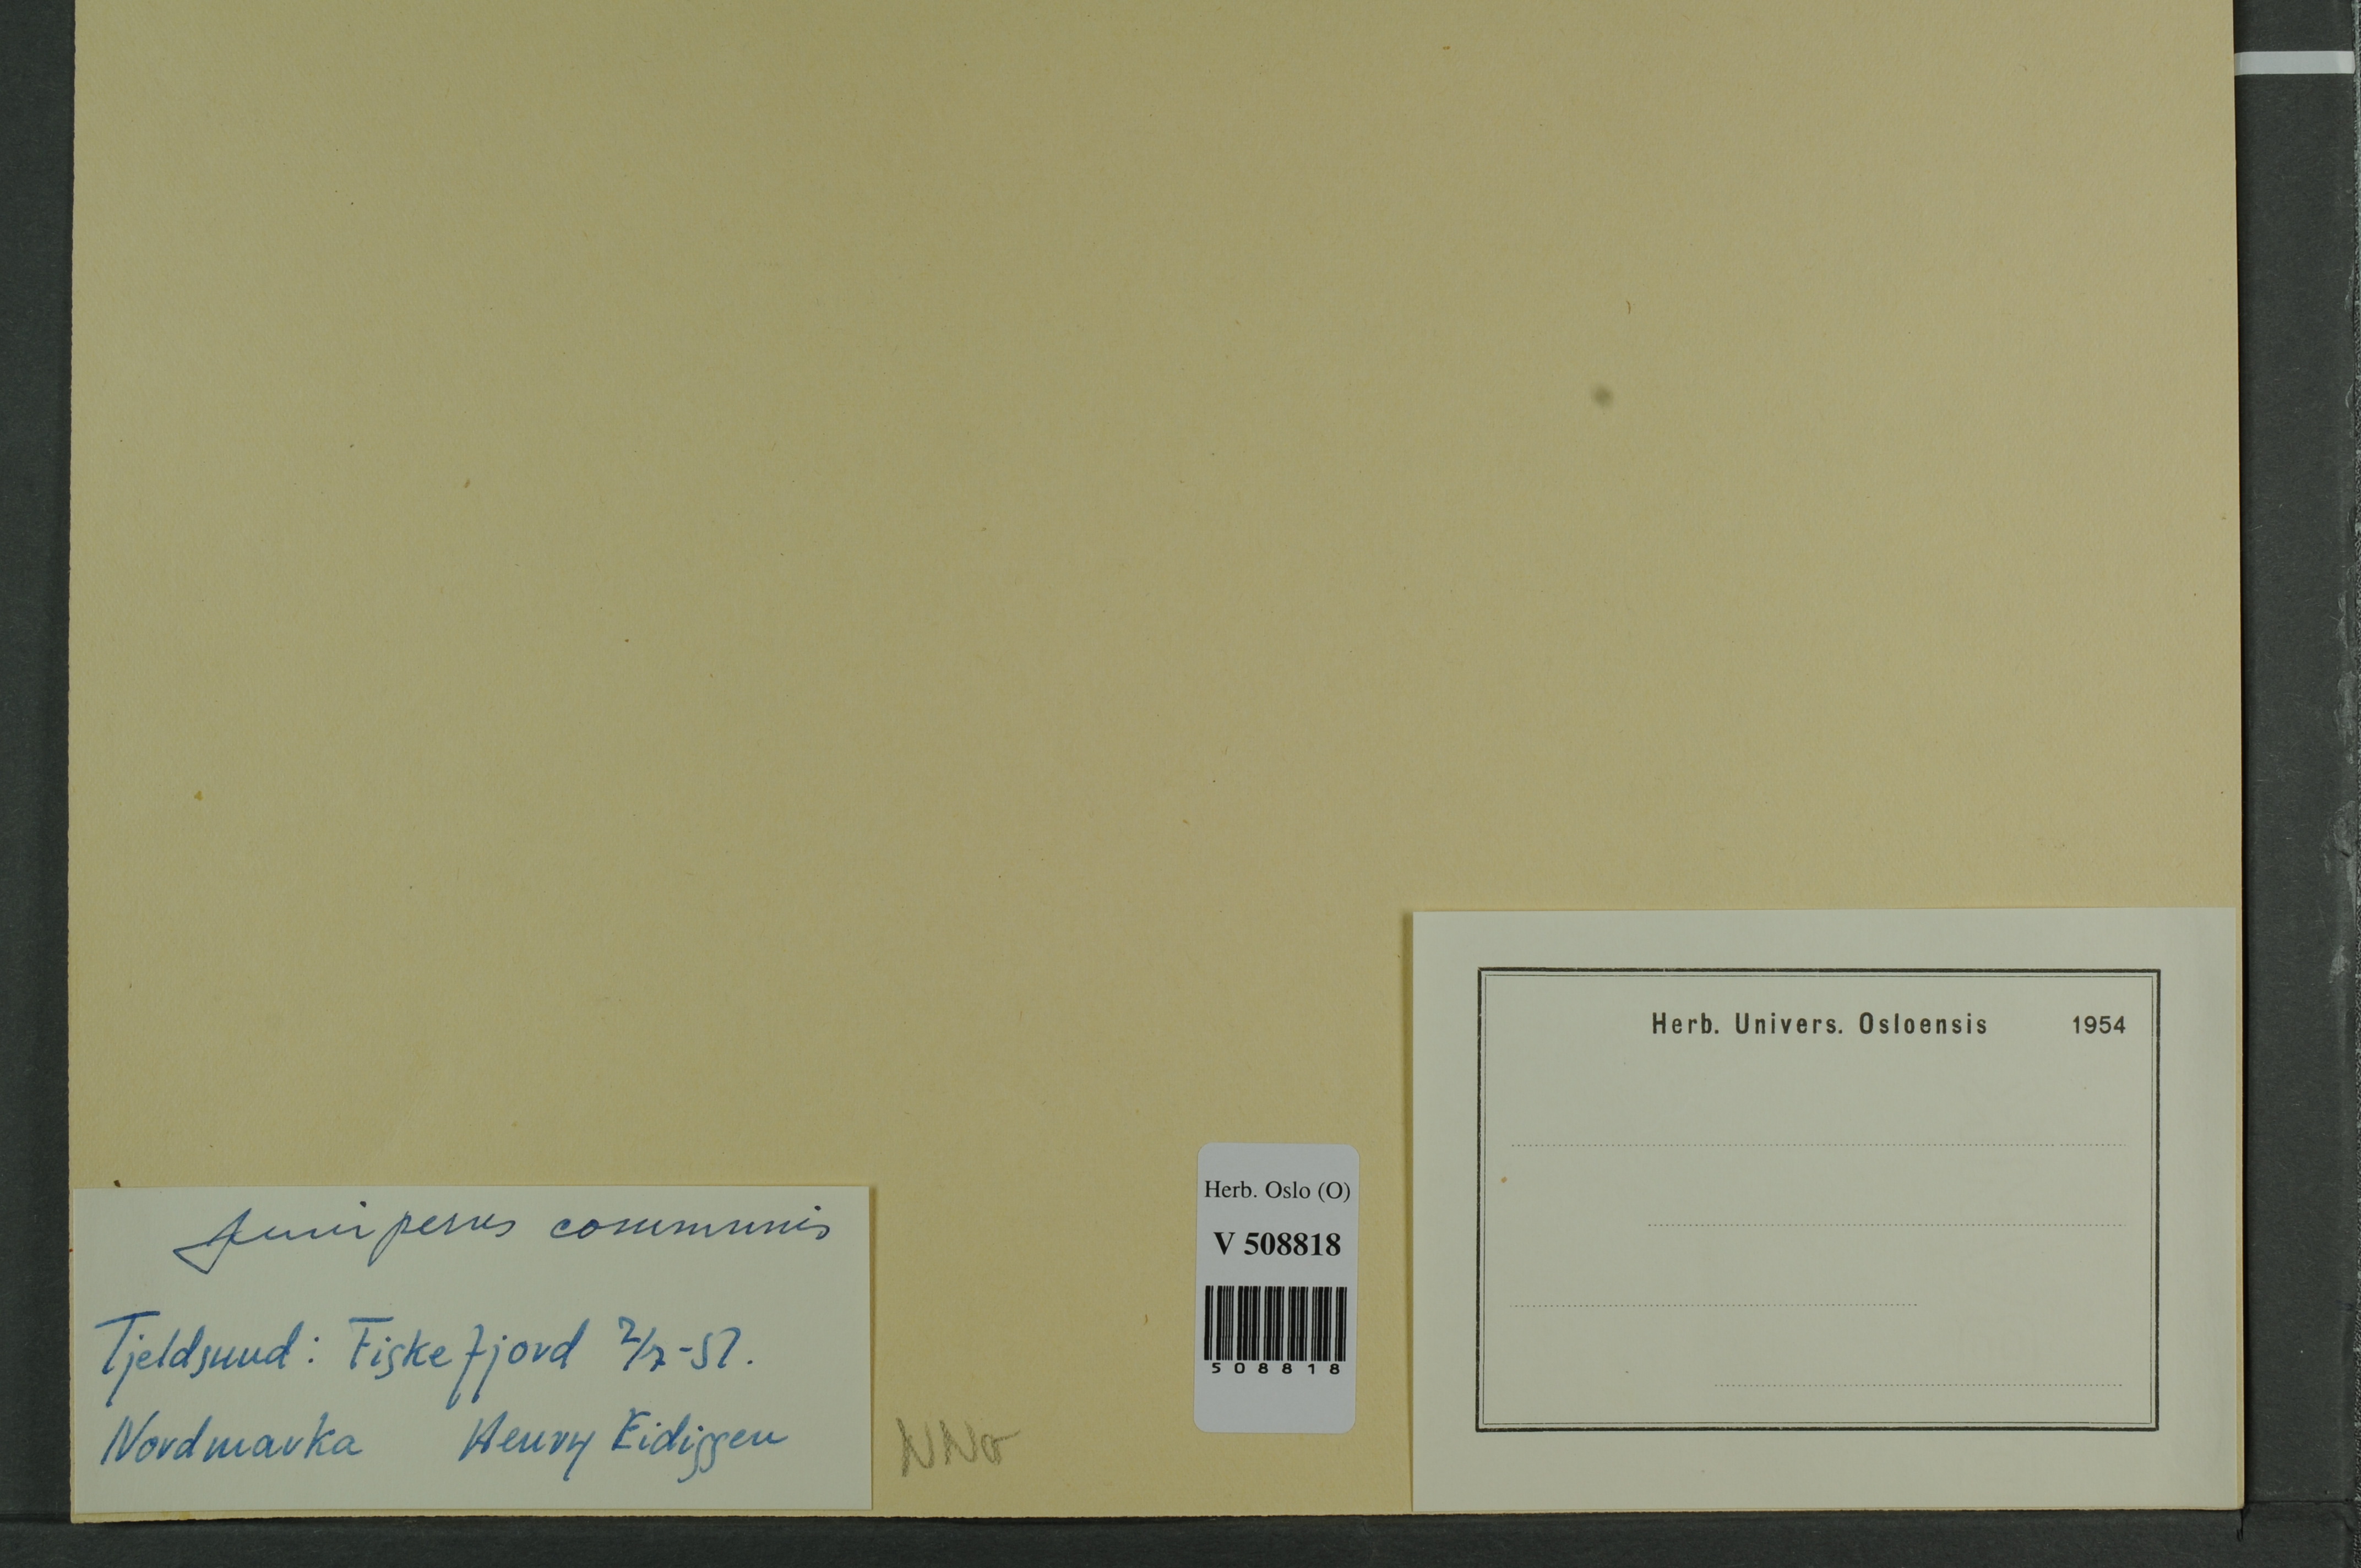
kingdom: Plantae
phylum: Tracheophyta
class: Pinopsida
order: Pinales
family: Cupressaceae
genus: Juniperus
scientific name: Juniperus communis
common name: Common juniper
